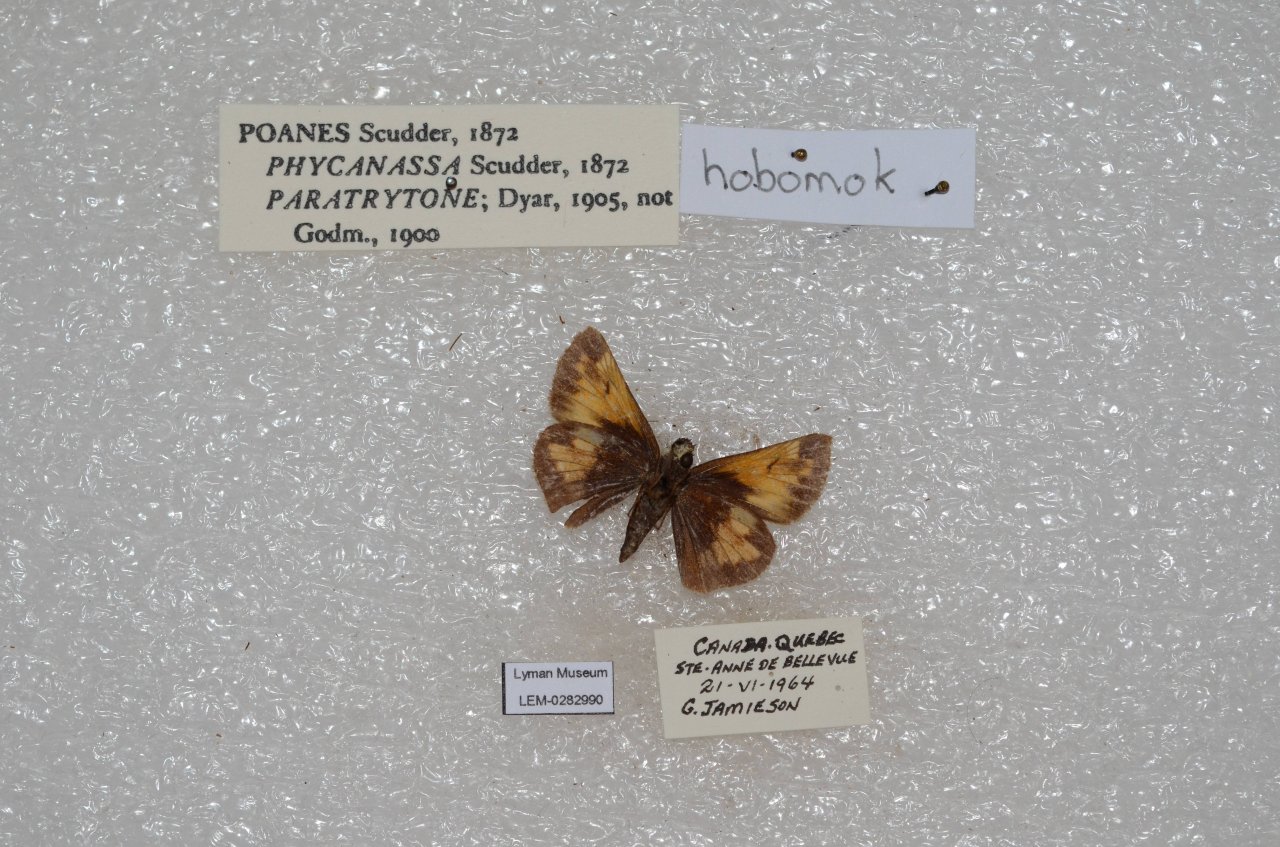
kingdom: Animalia
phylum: Arthropoda
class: Insecta
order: Lepidoptera
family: Hesperiidae
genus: Lon
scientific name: Lon hobomok
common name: Hobomok Skipper
